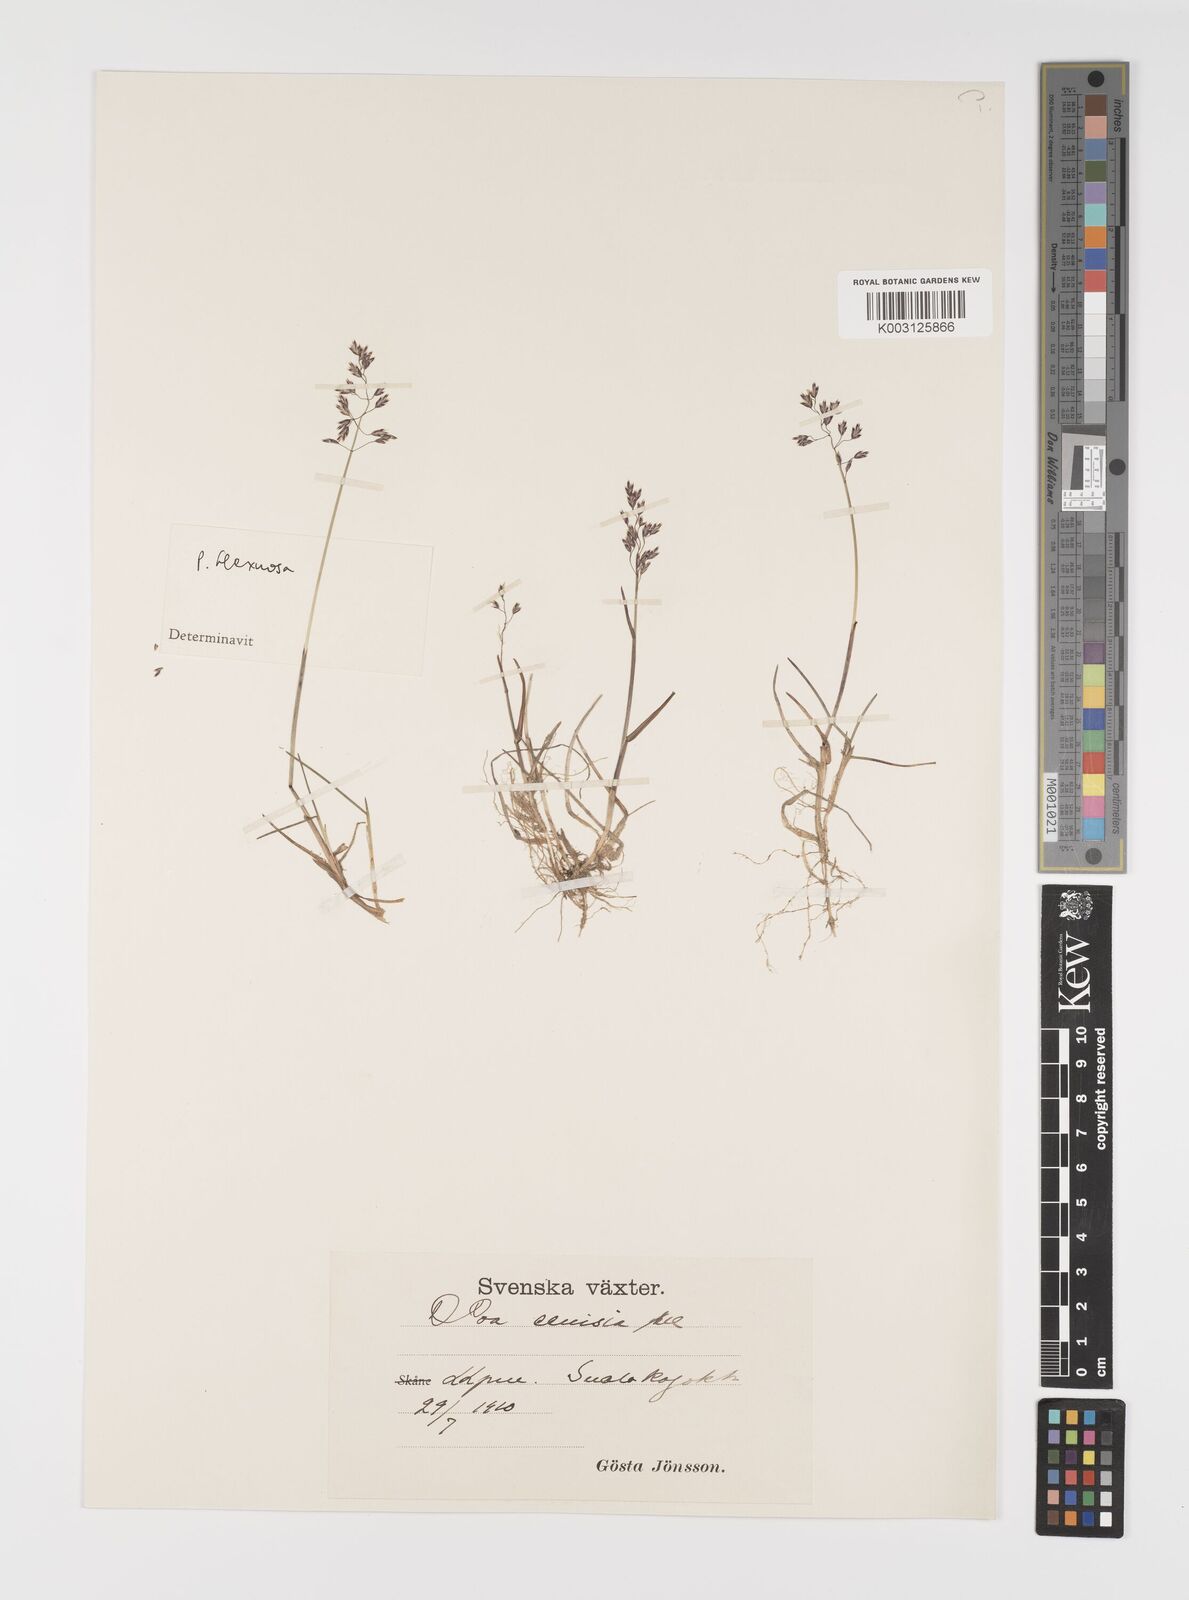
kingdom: Plantae
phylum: Tracheophyta
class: Liliopsida
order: Poales
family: Poaceae
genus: Eragrostis
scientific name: Eragrostis cilianensis
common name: Stinkgrass
